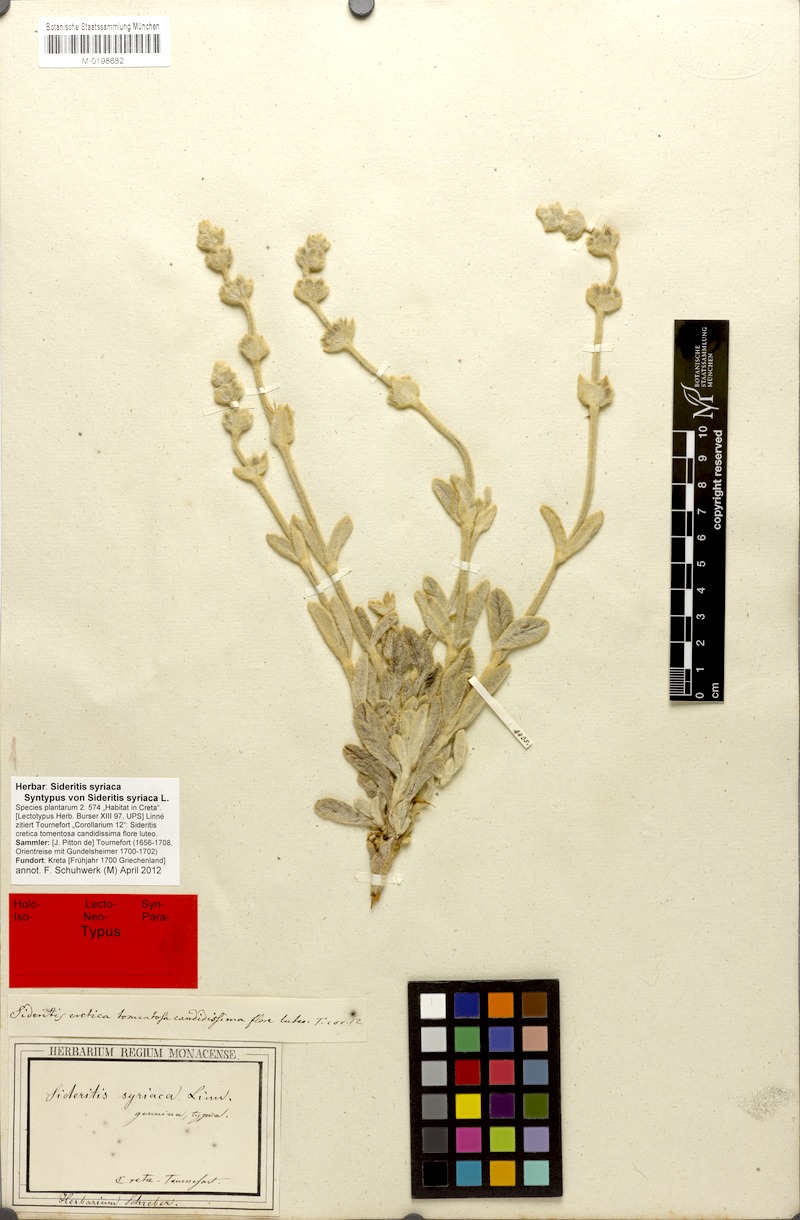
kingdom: Plantae
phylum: Tracheophyta
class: Magnoliopsida
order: Lamiales
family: Lamiaceae
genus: Sideritis
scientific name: Sideritis syriaca
